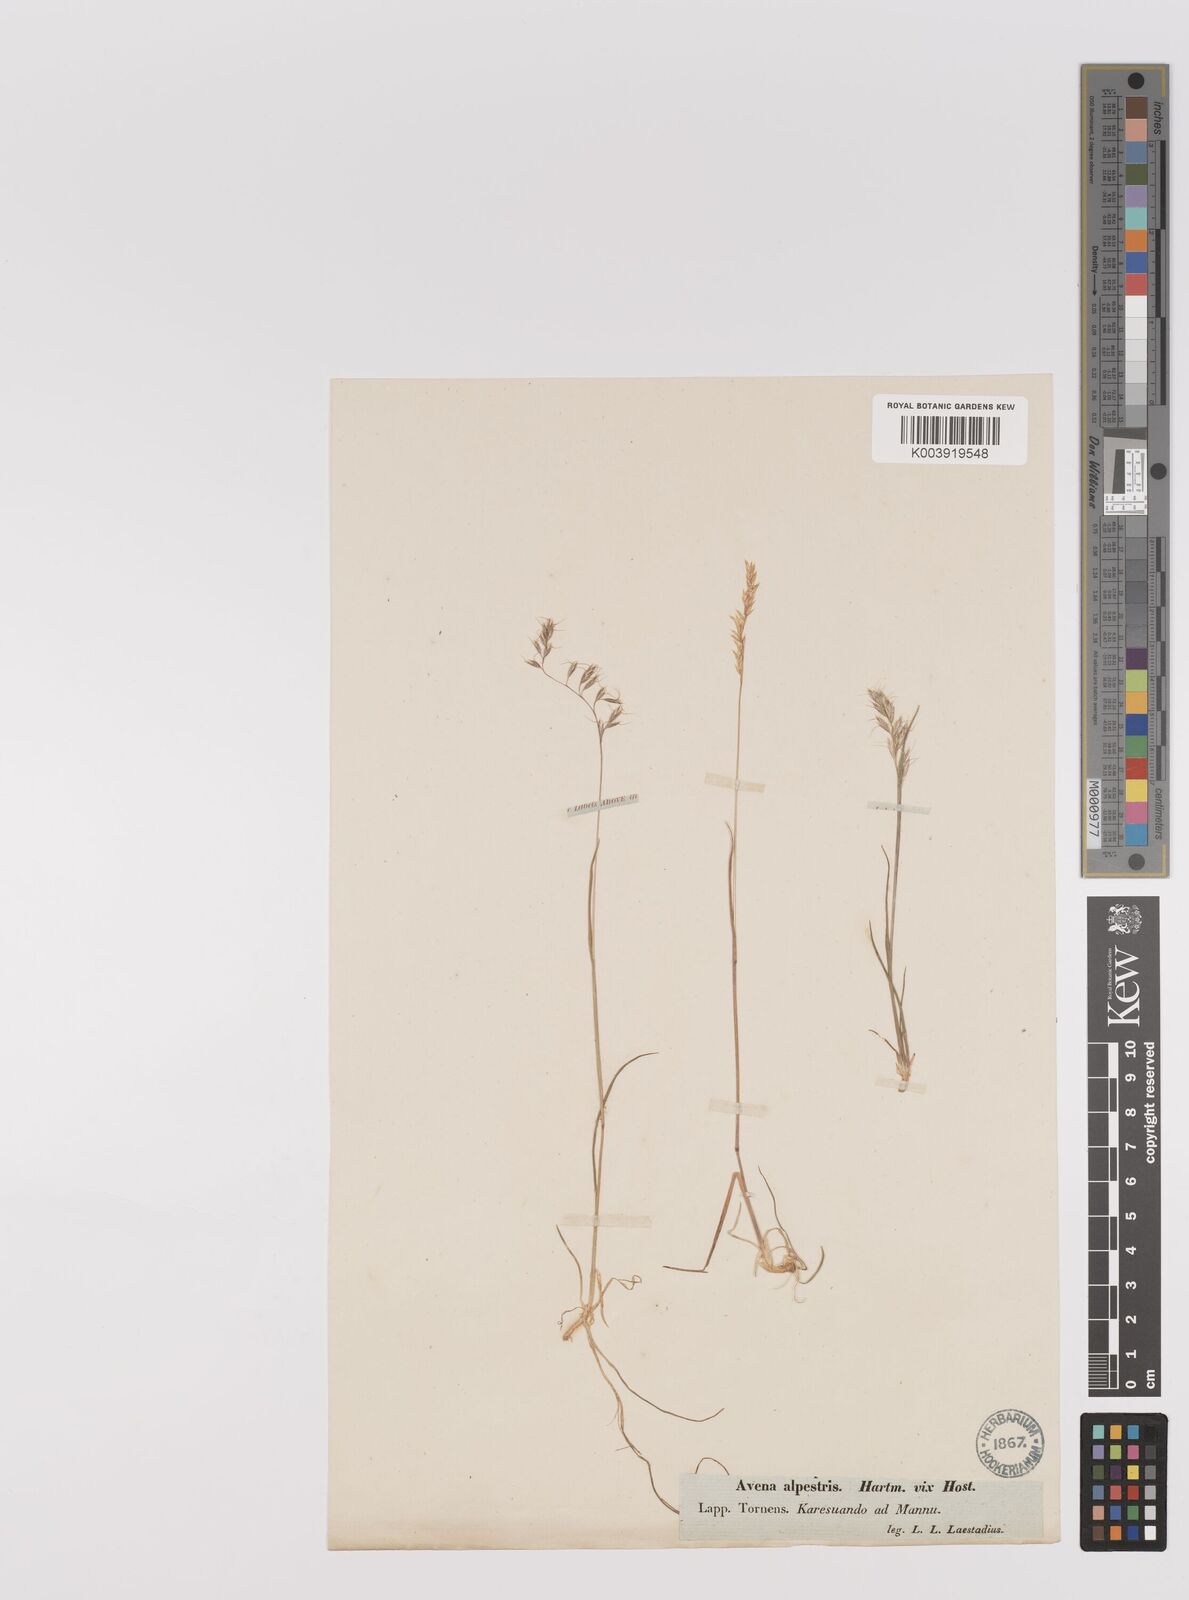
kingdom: Plantae
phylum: Tracheophyta
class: Liliopsida
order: Poales
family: Poaceae
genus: Koeleria
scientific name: Koeleria subalpestris
